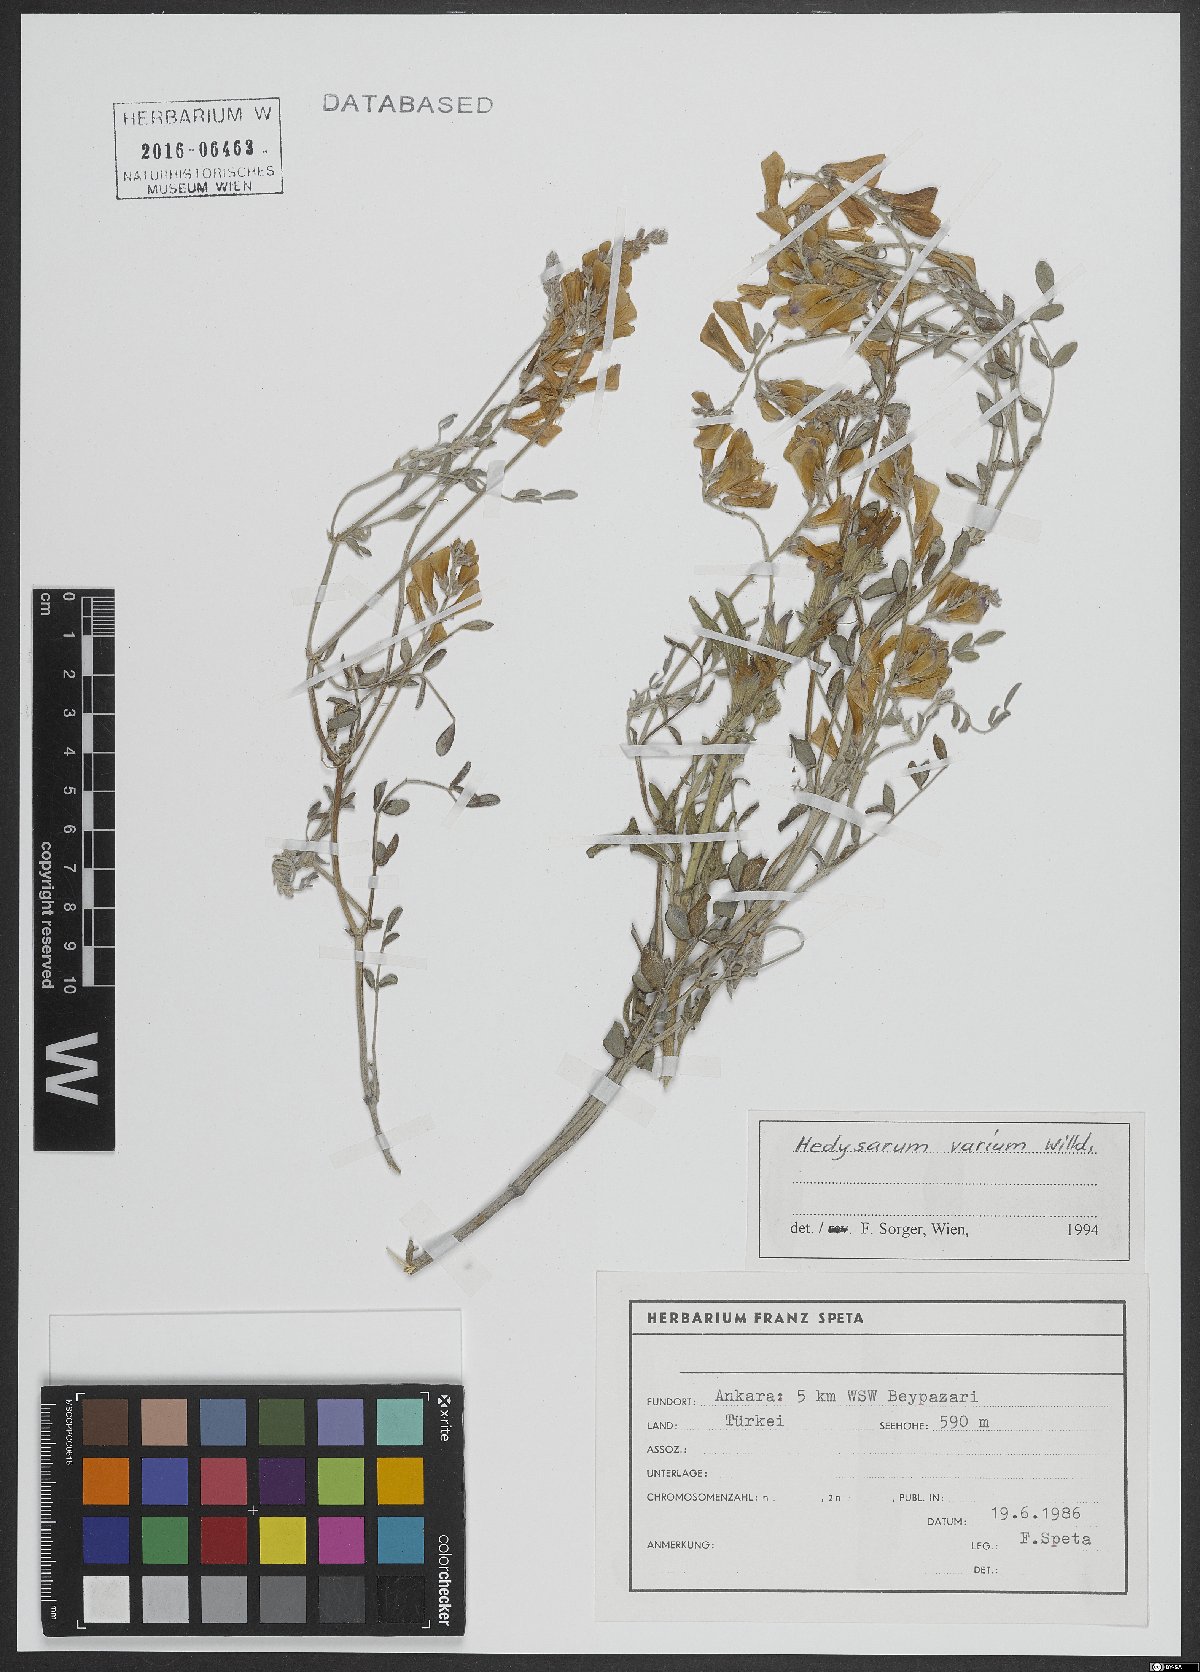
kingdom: Plantae
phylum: Tracheophyta
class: Magnoliopsida
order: Fabales
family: Fabaceae
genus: Hedysarum
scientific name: Hedysarum varium
